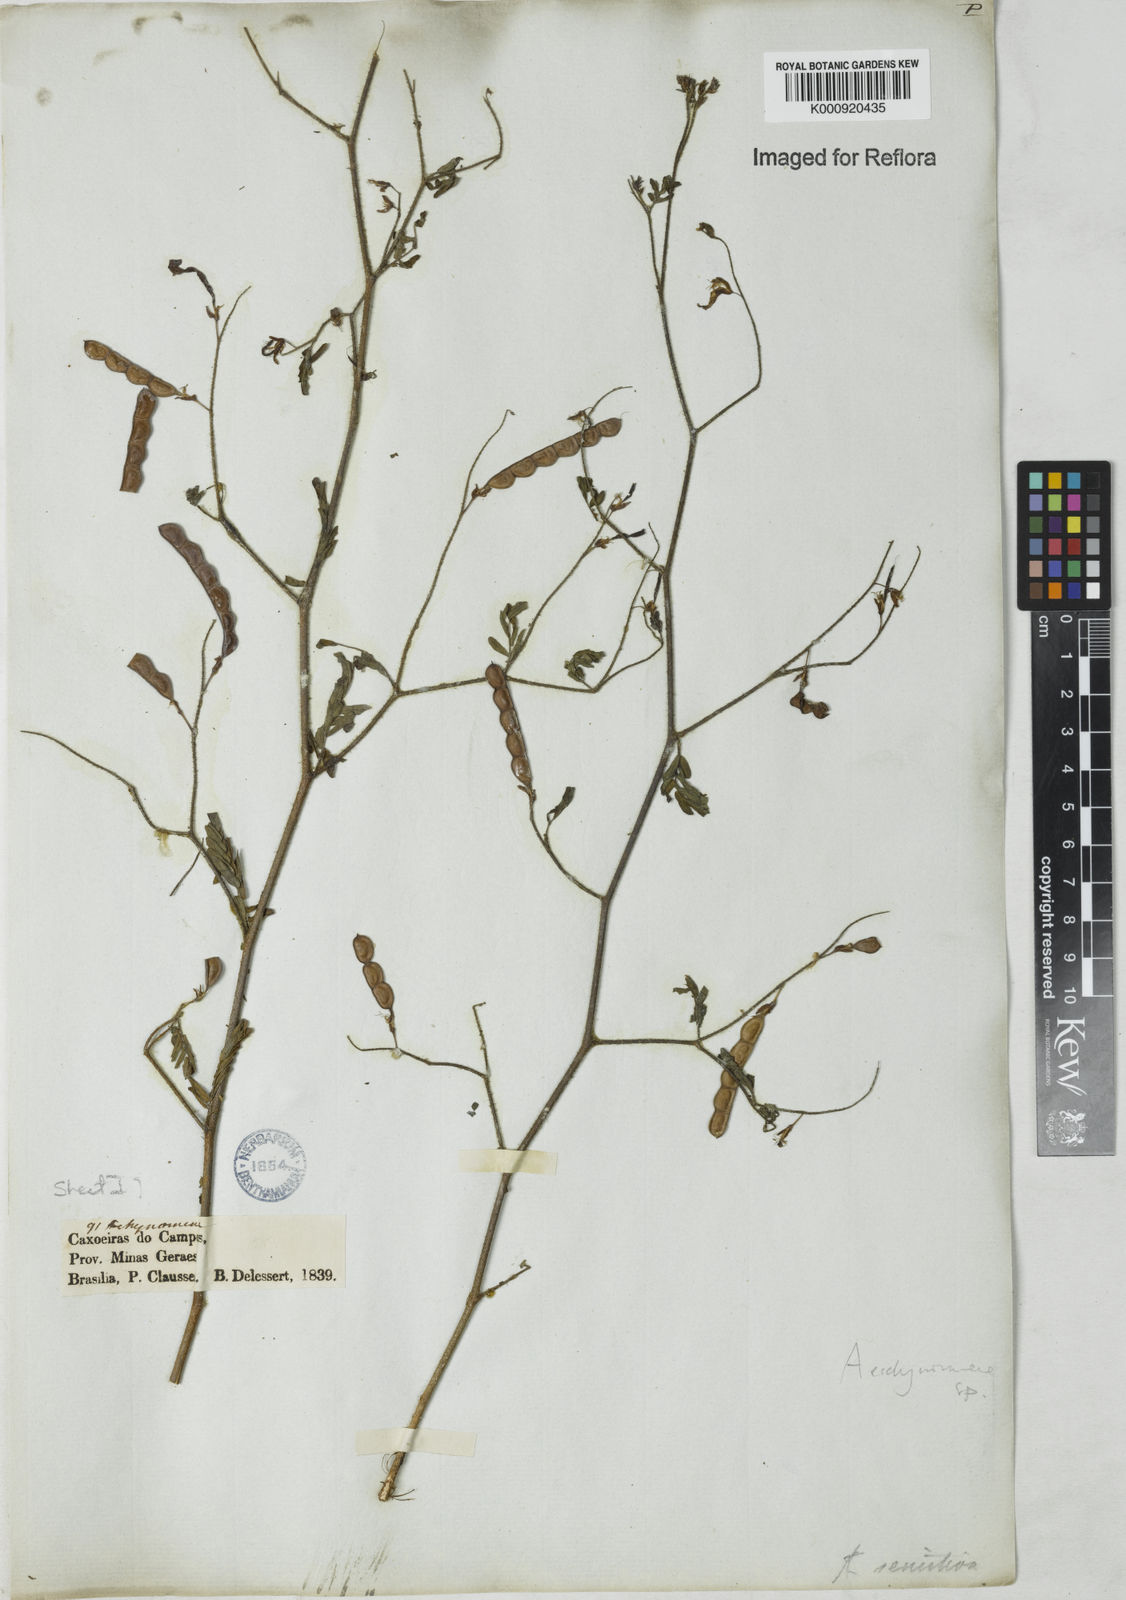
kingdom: Plantae
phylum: Tracheophyta
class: Magnoliopsida
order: Fabales
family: Fabaceae
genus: Aeschynomene
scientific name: Aeschynomene
